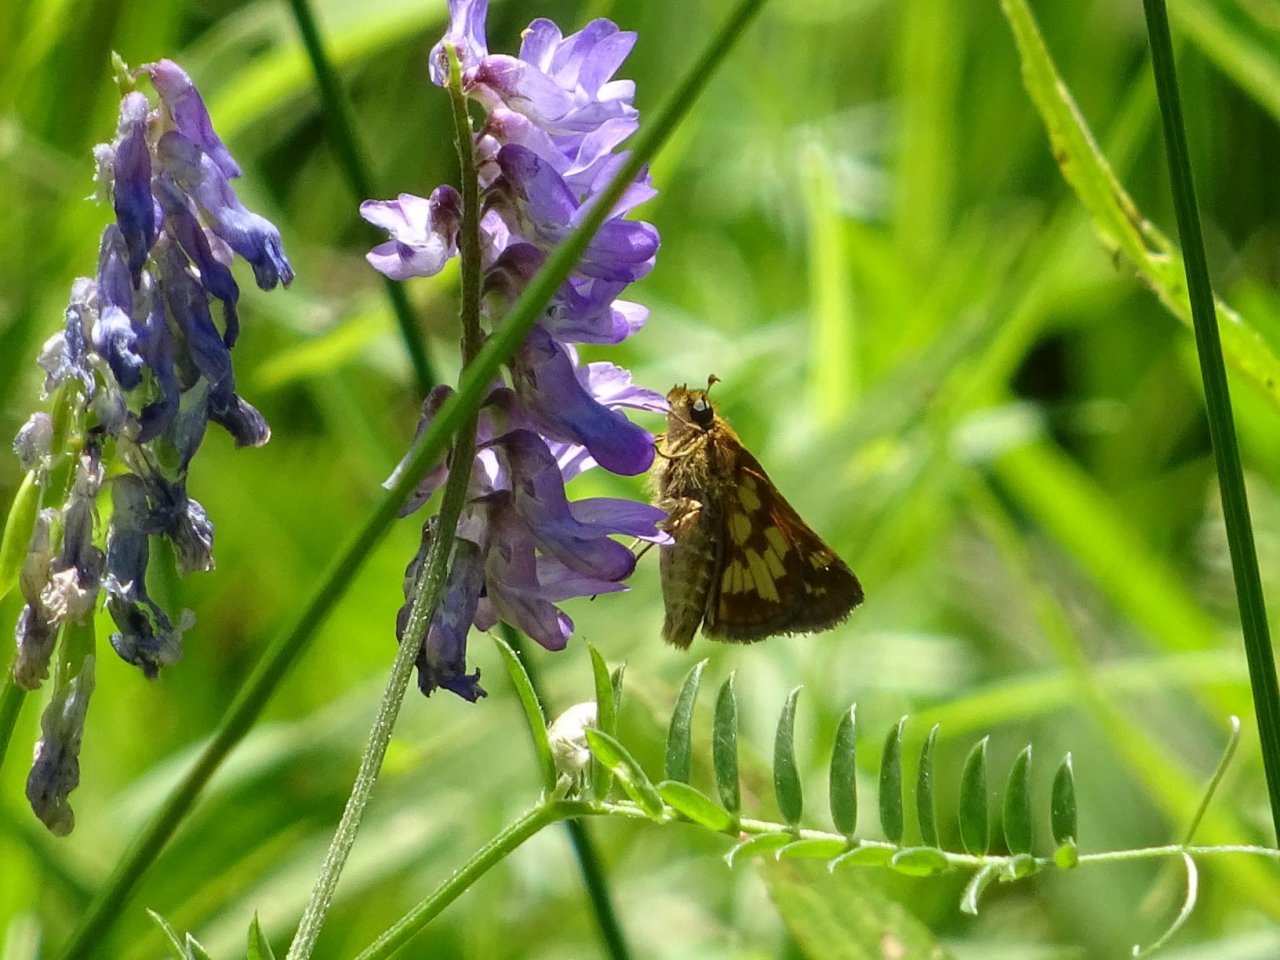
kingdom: Animalia
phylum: Arthropoda
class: Insecta
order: Lepidoptera
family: Hesperiidae
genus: Polites
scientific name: Polites coras
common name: Peck's Skipper
